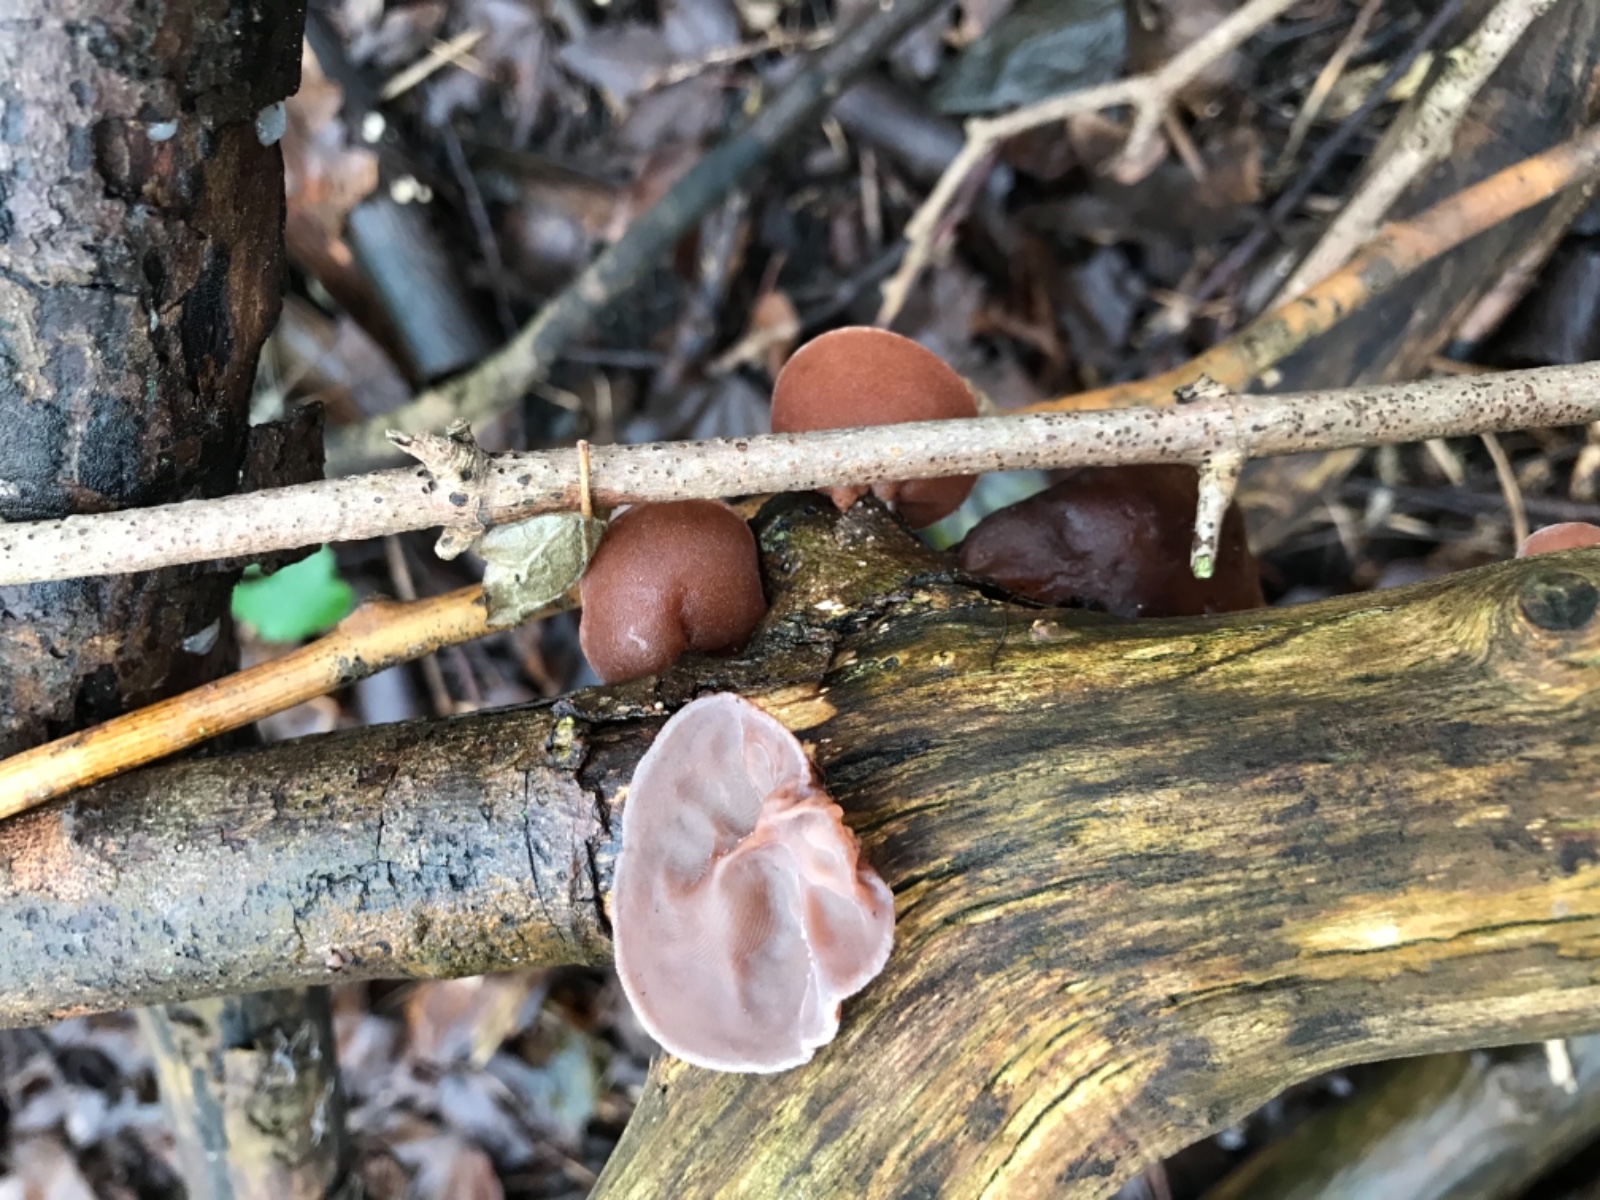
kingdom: Fungi
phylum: Basidiomycota
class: Agaricomycetes
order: Auriculariales
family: Auriculariaceae
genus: Auricularia
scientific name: Auricularia auricula-judae
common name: almindelig judasøre
